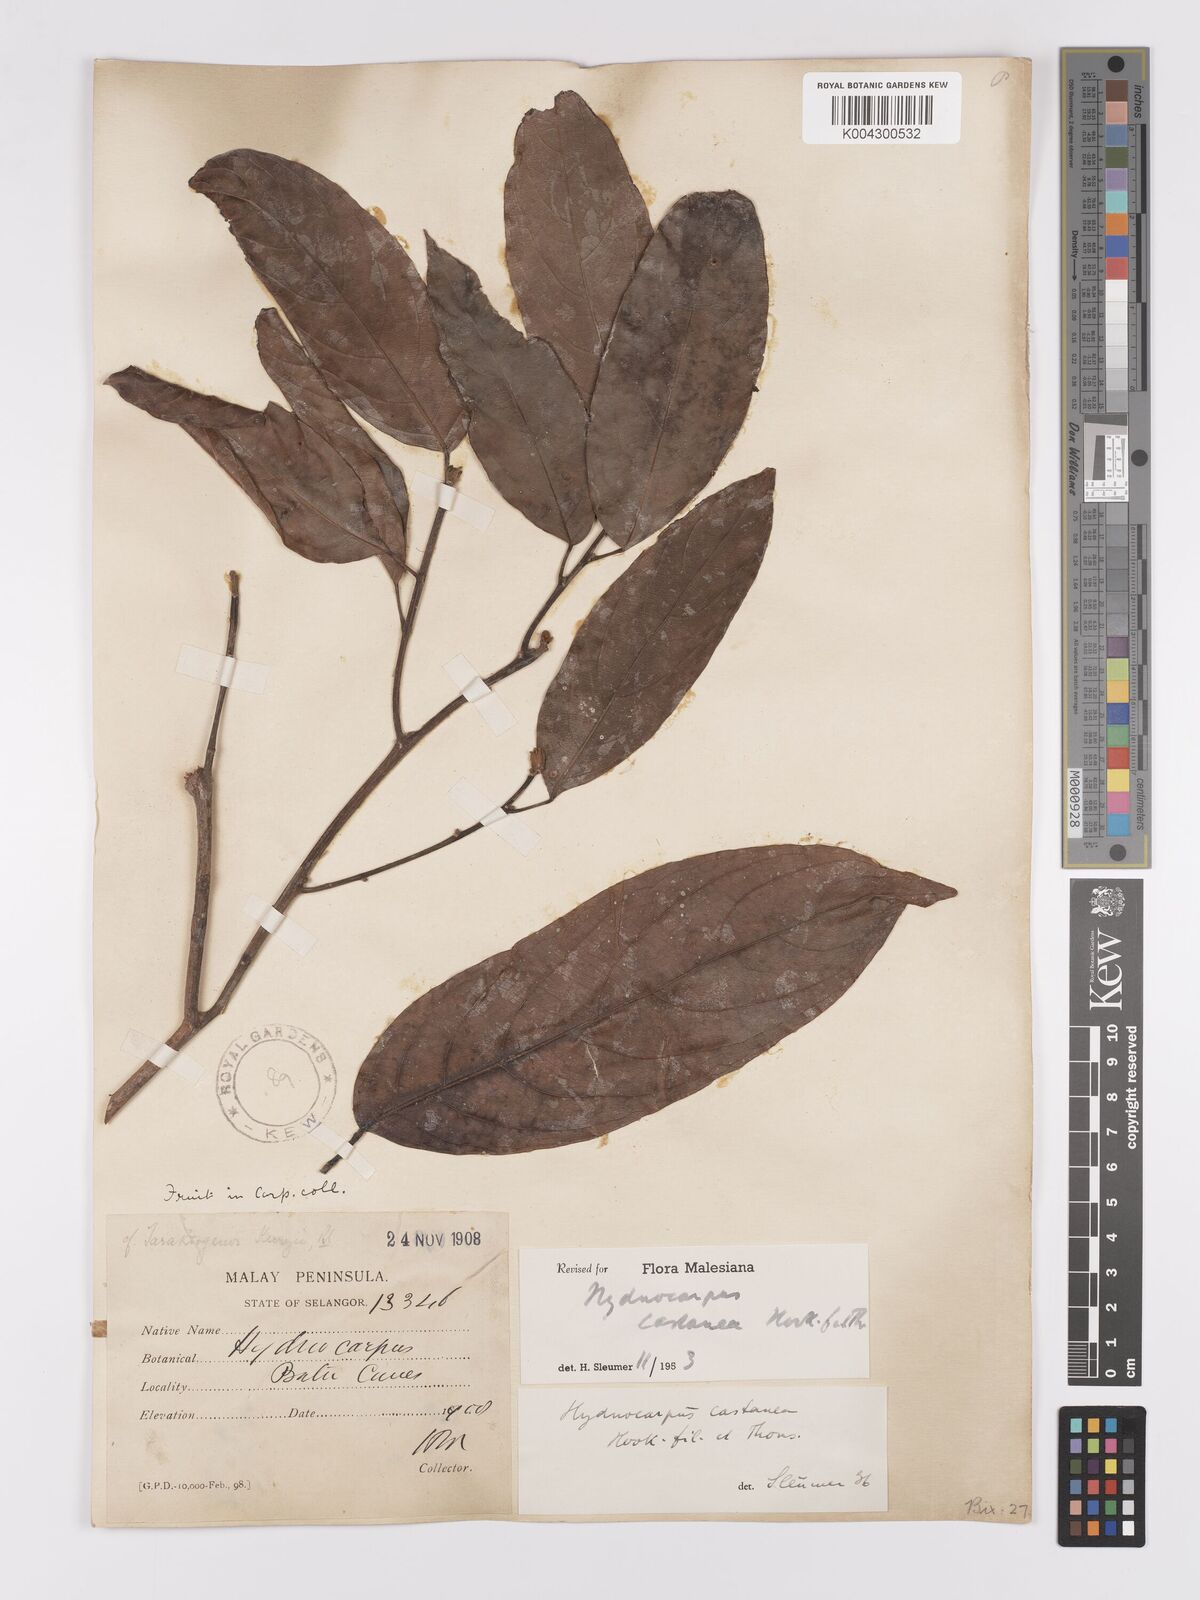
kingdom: Plantae
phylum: Tracheophyta
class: Magnoliopsida
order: Malpighiales
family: Achariaceae
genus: Hydnocarpus
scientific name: Hydnocarpus castaneus
